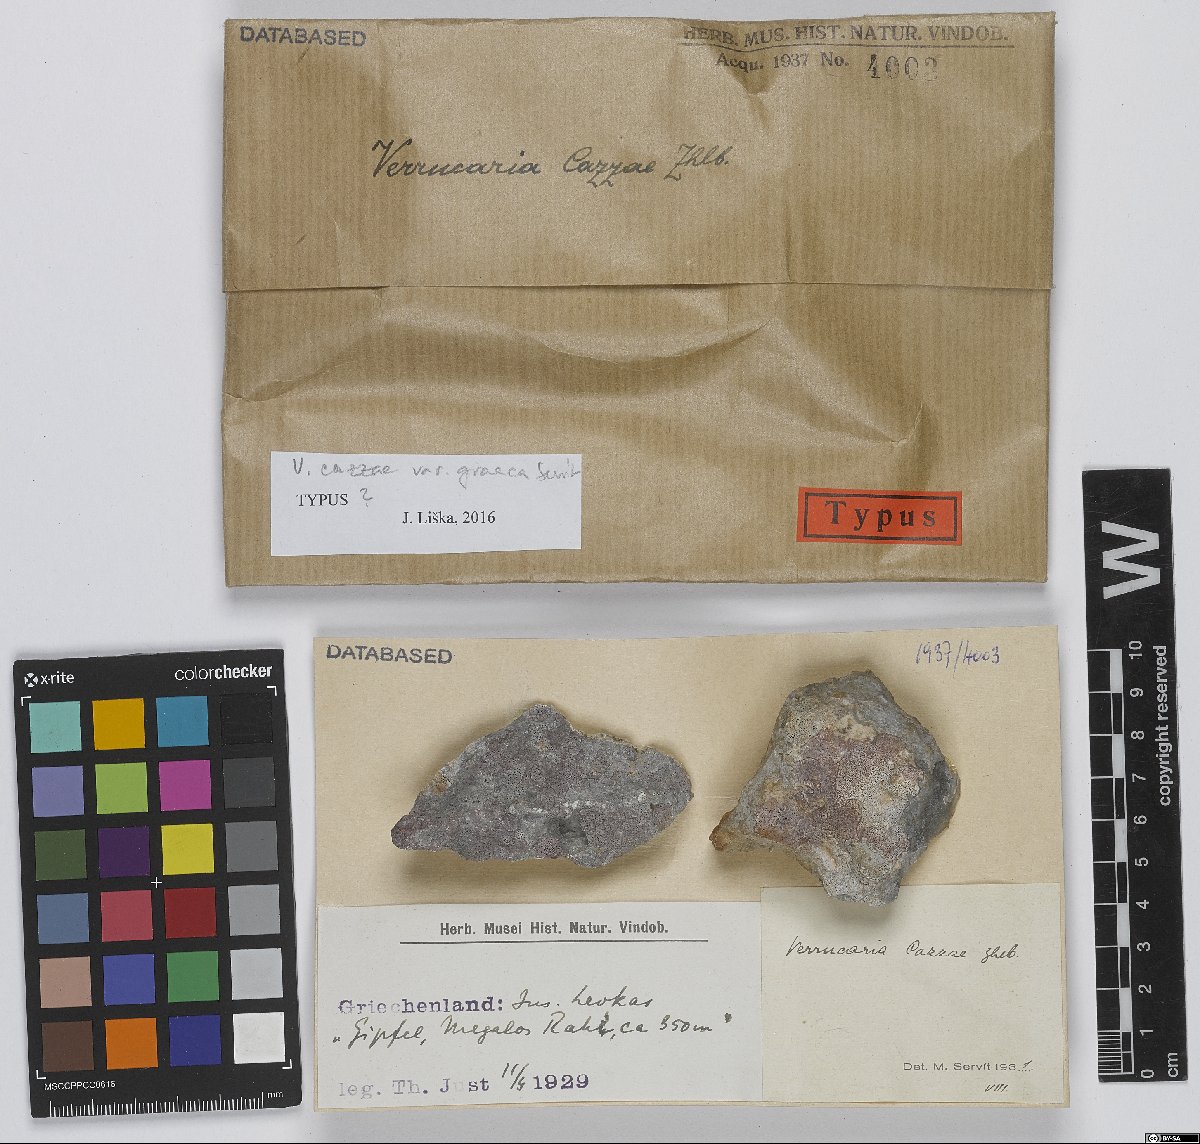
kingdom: Fungi
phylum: Ascomycota
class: Eurotiomycetes
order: Verrucariales
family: Verrucariaceae
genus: Bagliettoa
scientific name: Bagliettoa cazzae
